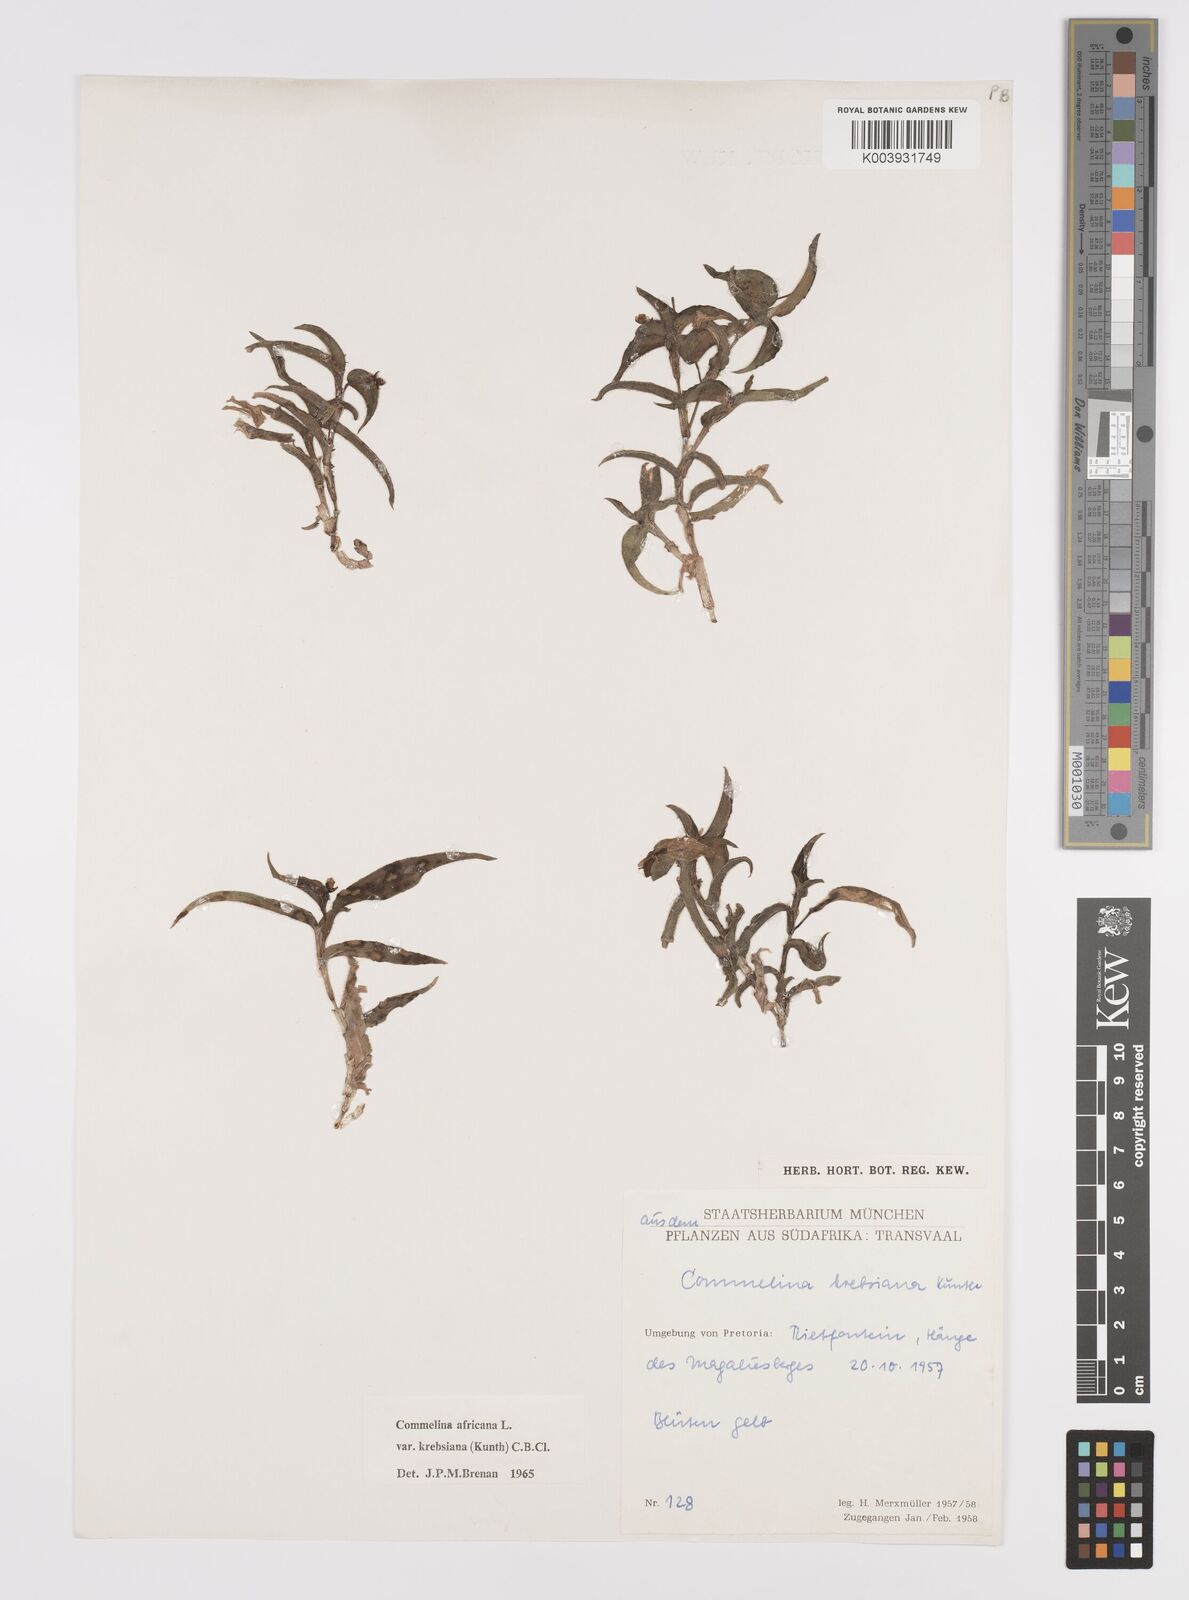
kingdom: Plantae
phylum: Tracheophyta
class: Liliopsida
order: Commelinales
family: Commelinaceae
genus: Commelina
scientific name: Commelina africana
